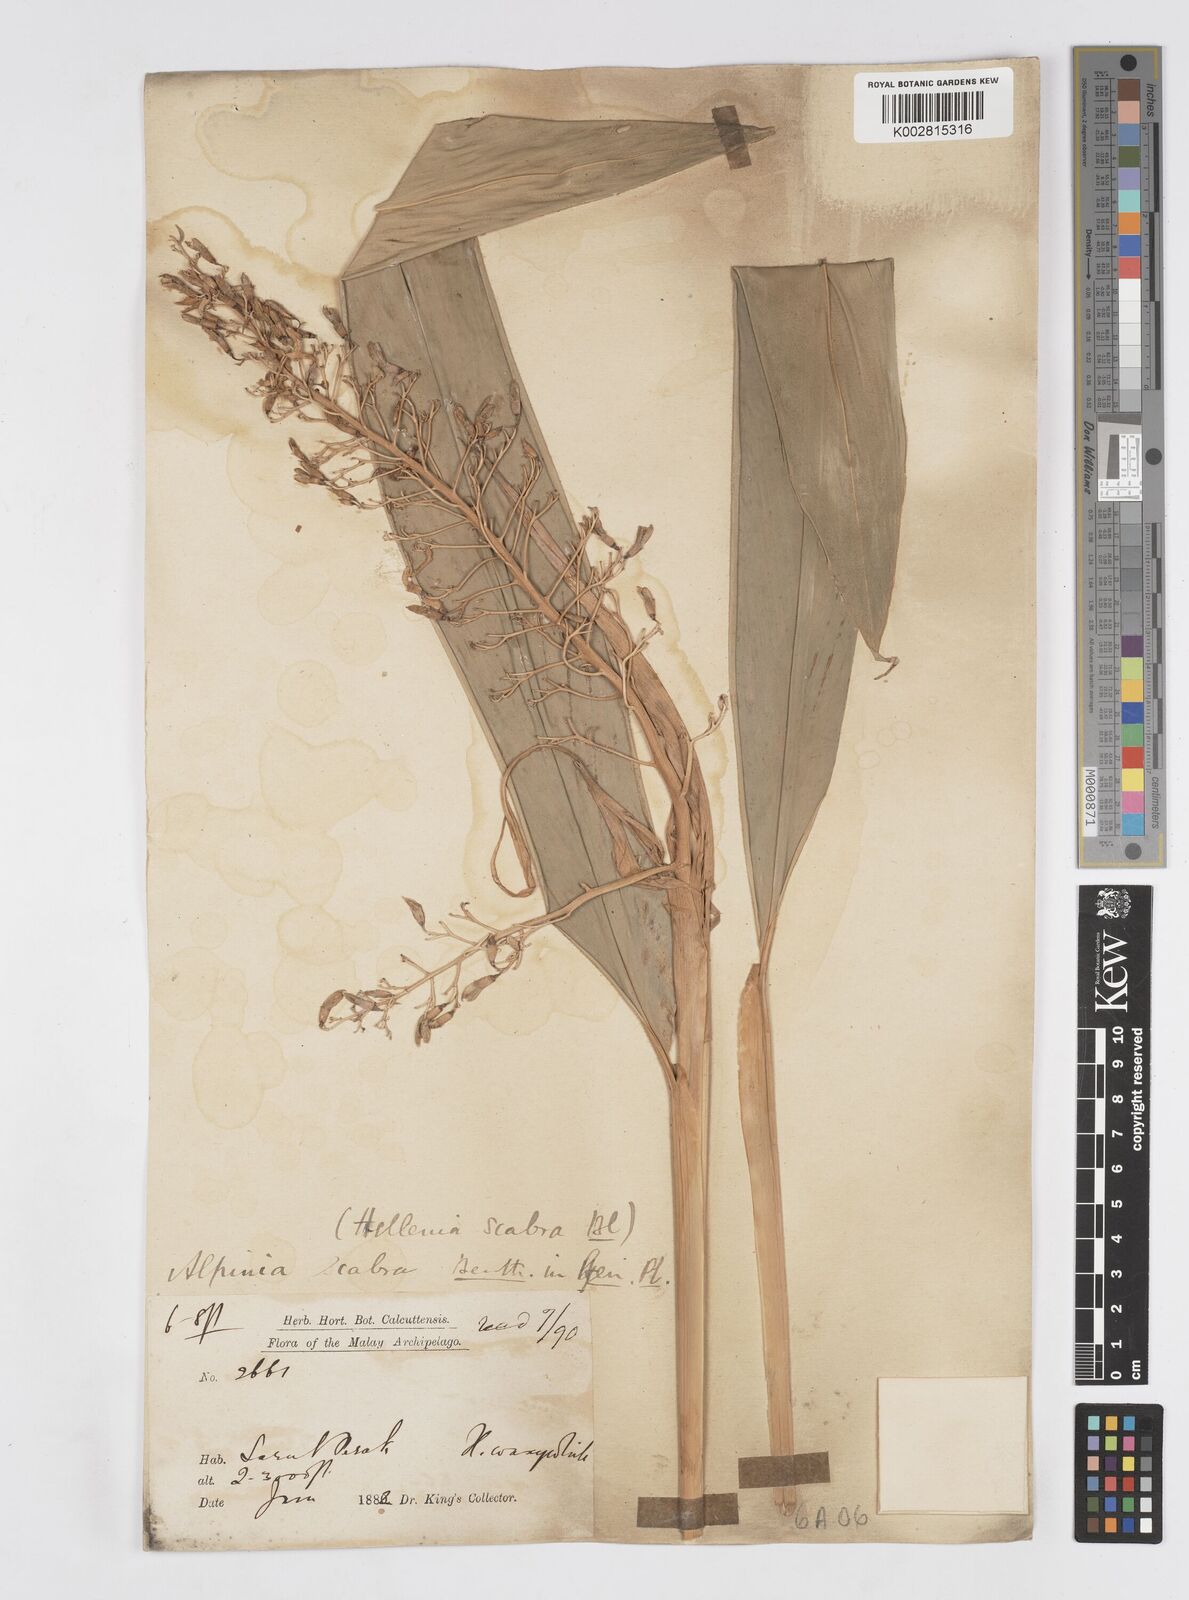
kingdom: Plantae
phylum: Tracheophyta
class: Liliopsida
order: Zingiberales
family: Zingiberaceae
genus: Alpinia
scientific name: Alpinia scabra
